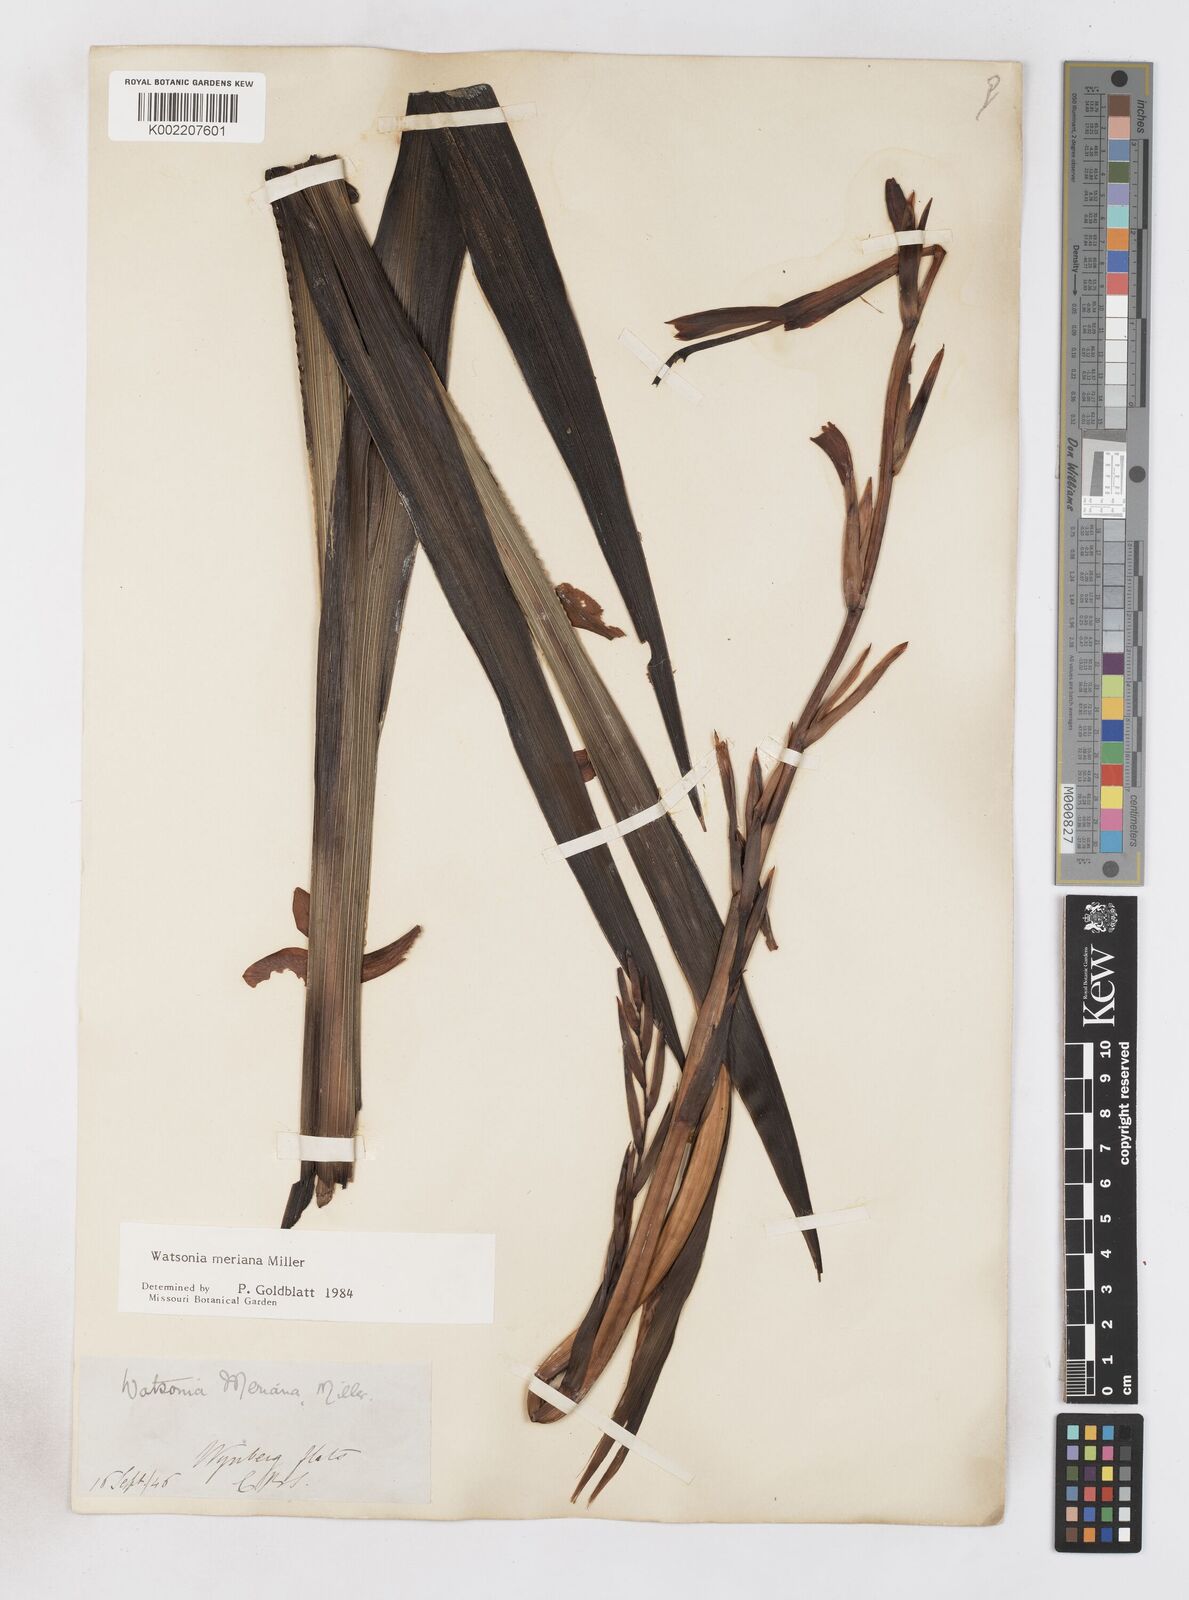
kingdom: Plantae
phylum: Tracheophyta
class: Liliopsida
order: Asparagales
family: Iridaceae
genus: Watsonia
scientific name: Watsonia meriana
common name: Bulbil bugle-lily
